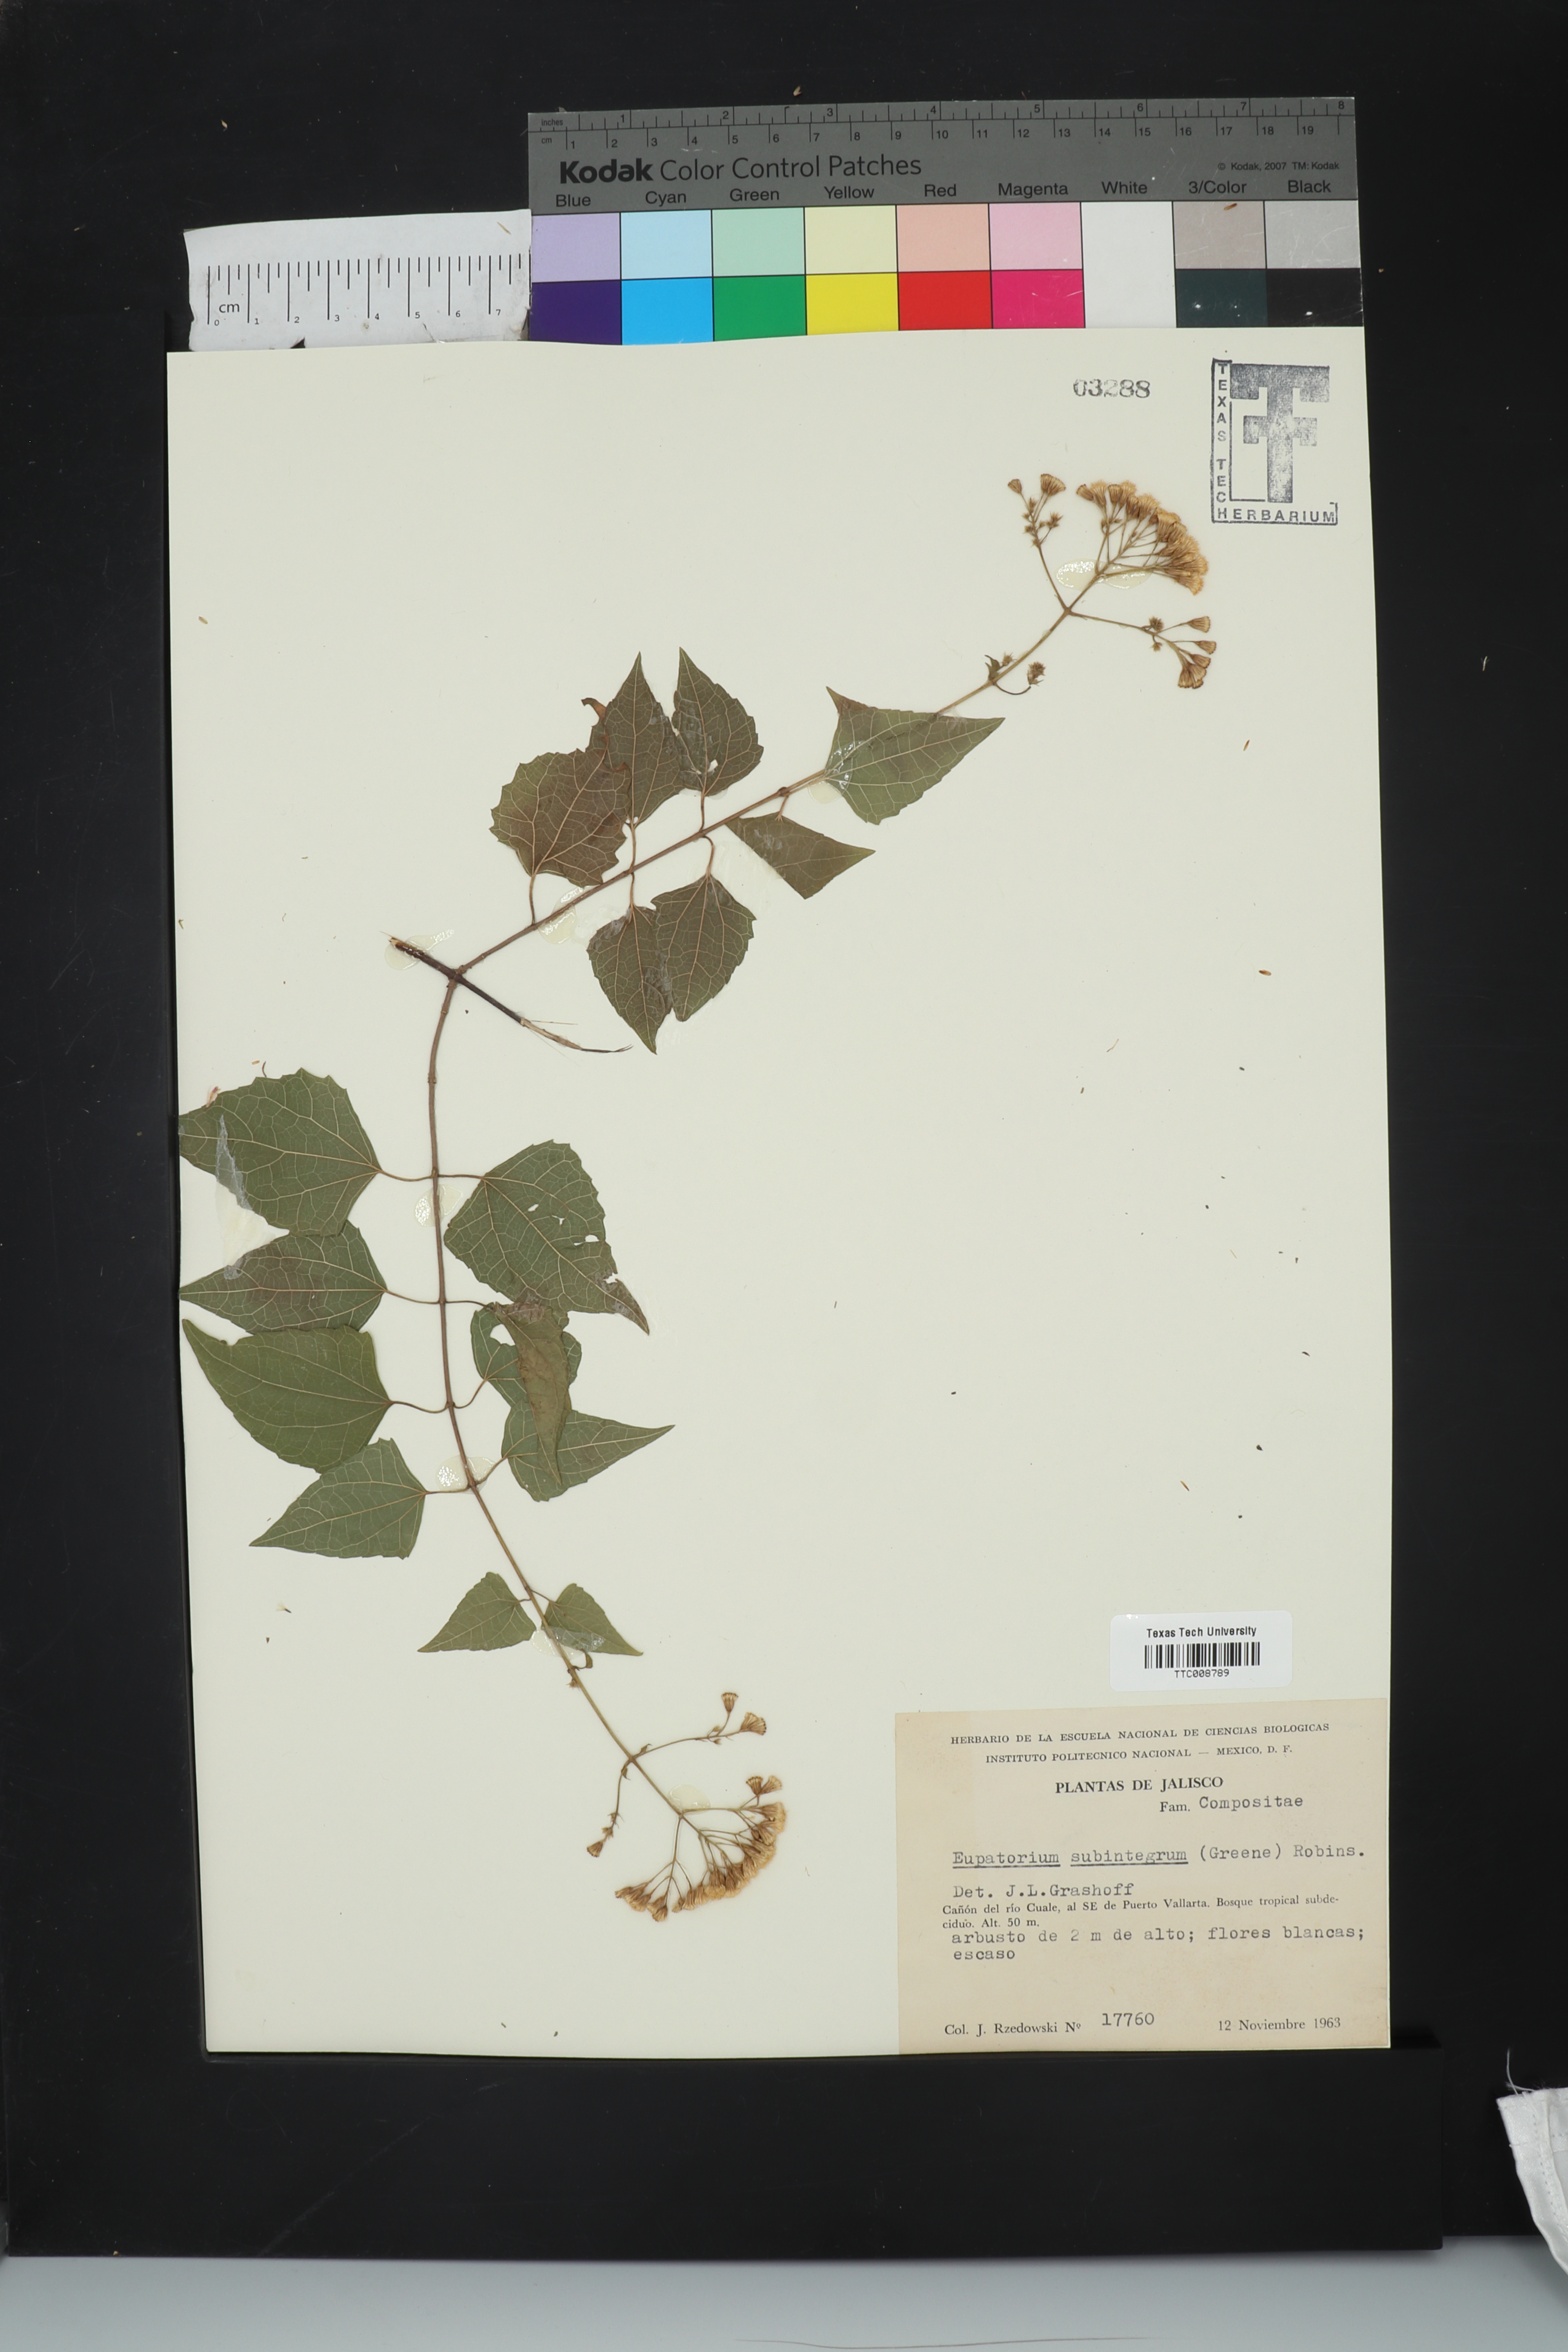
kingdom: Plantae
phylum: Tracheophyta
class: Magnoliopsida
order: Asterales
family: Asteraceae
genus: Ageratina
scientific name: Ageratina espinosarum
